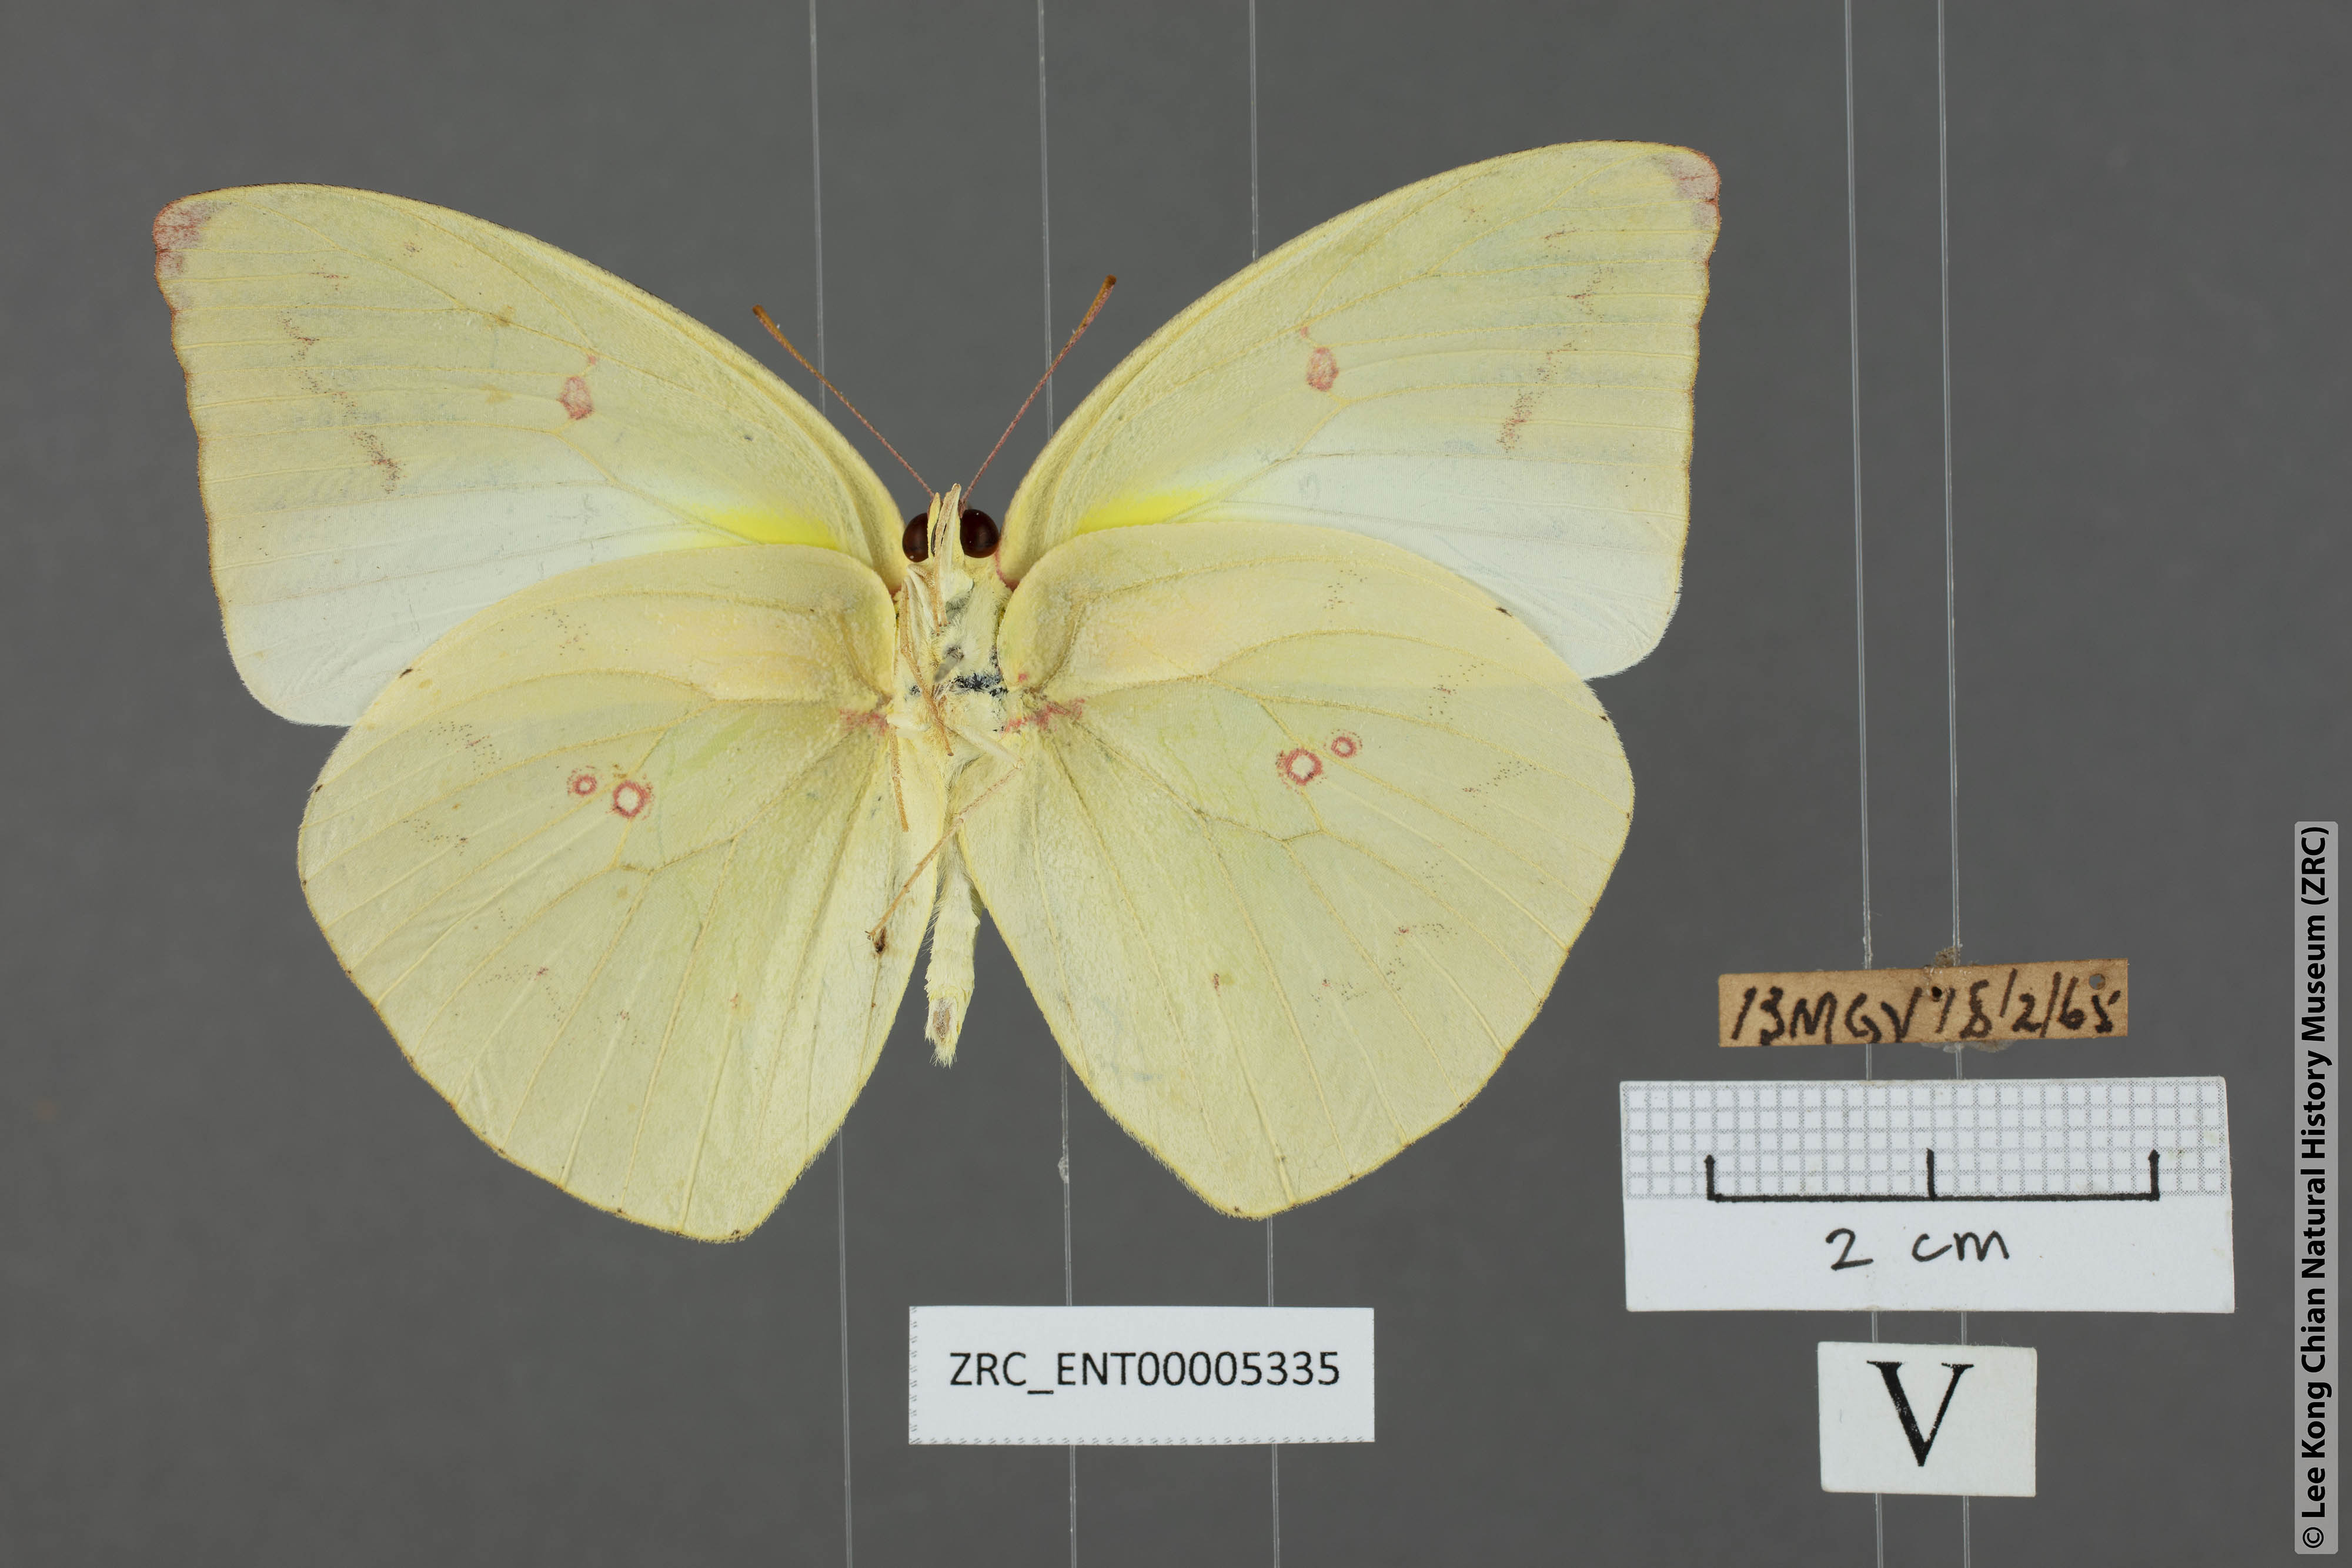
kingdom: Animalia
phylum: Arthropoda
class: Insecta
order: Lepidoptera
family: Pieridae
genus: Catopsilia
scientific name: Catopsilia pomona
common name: Common emigrant
